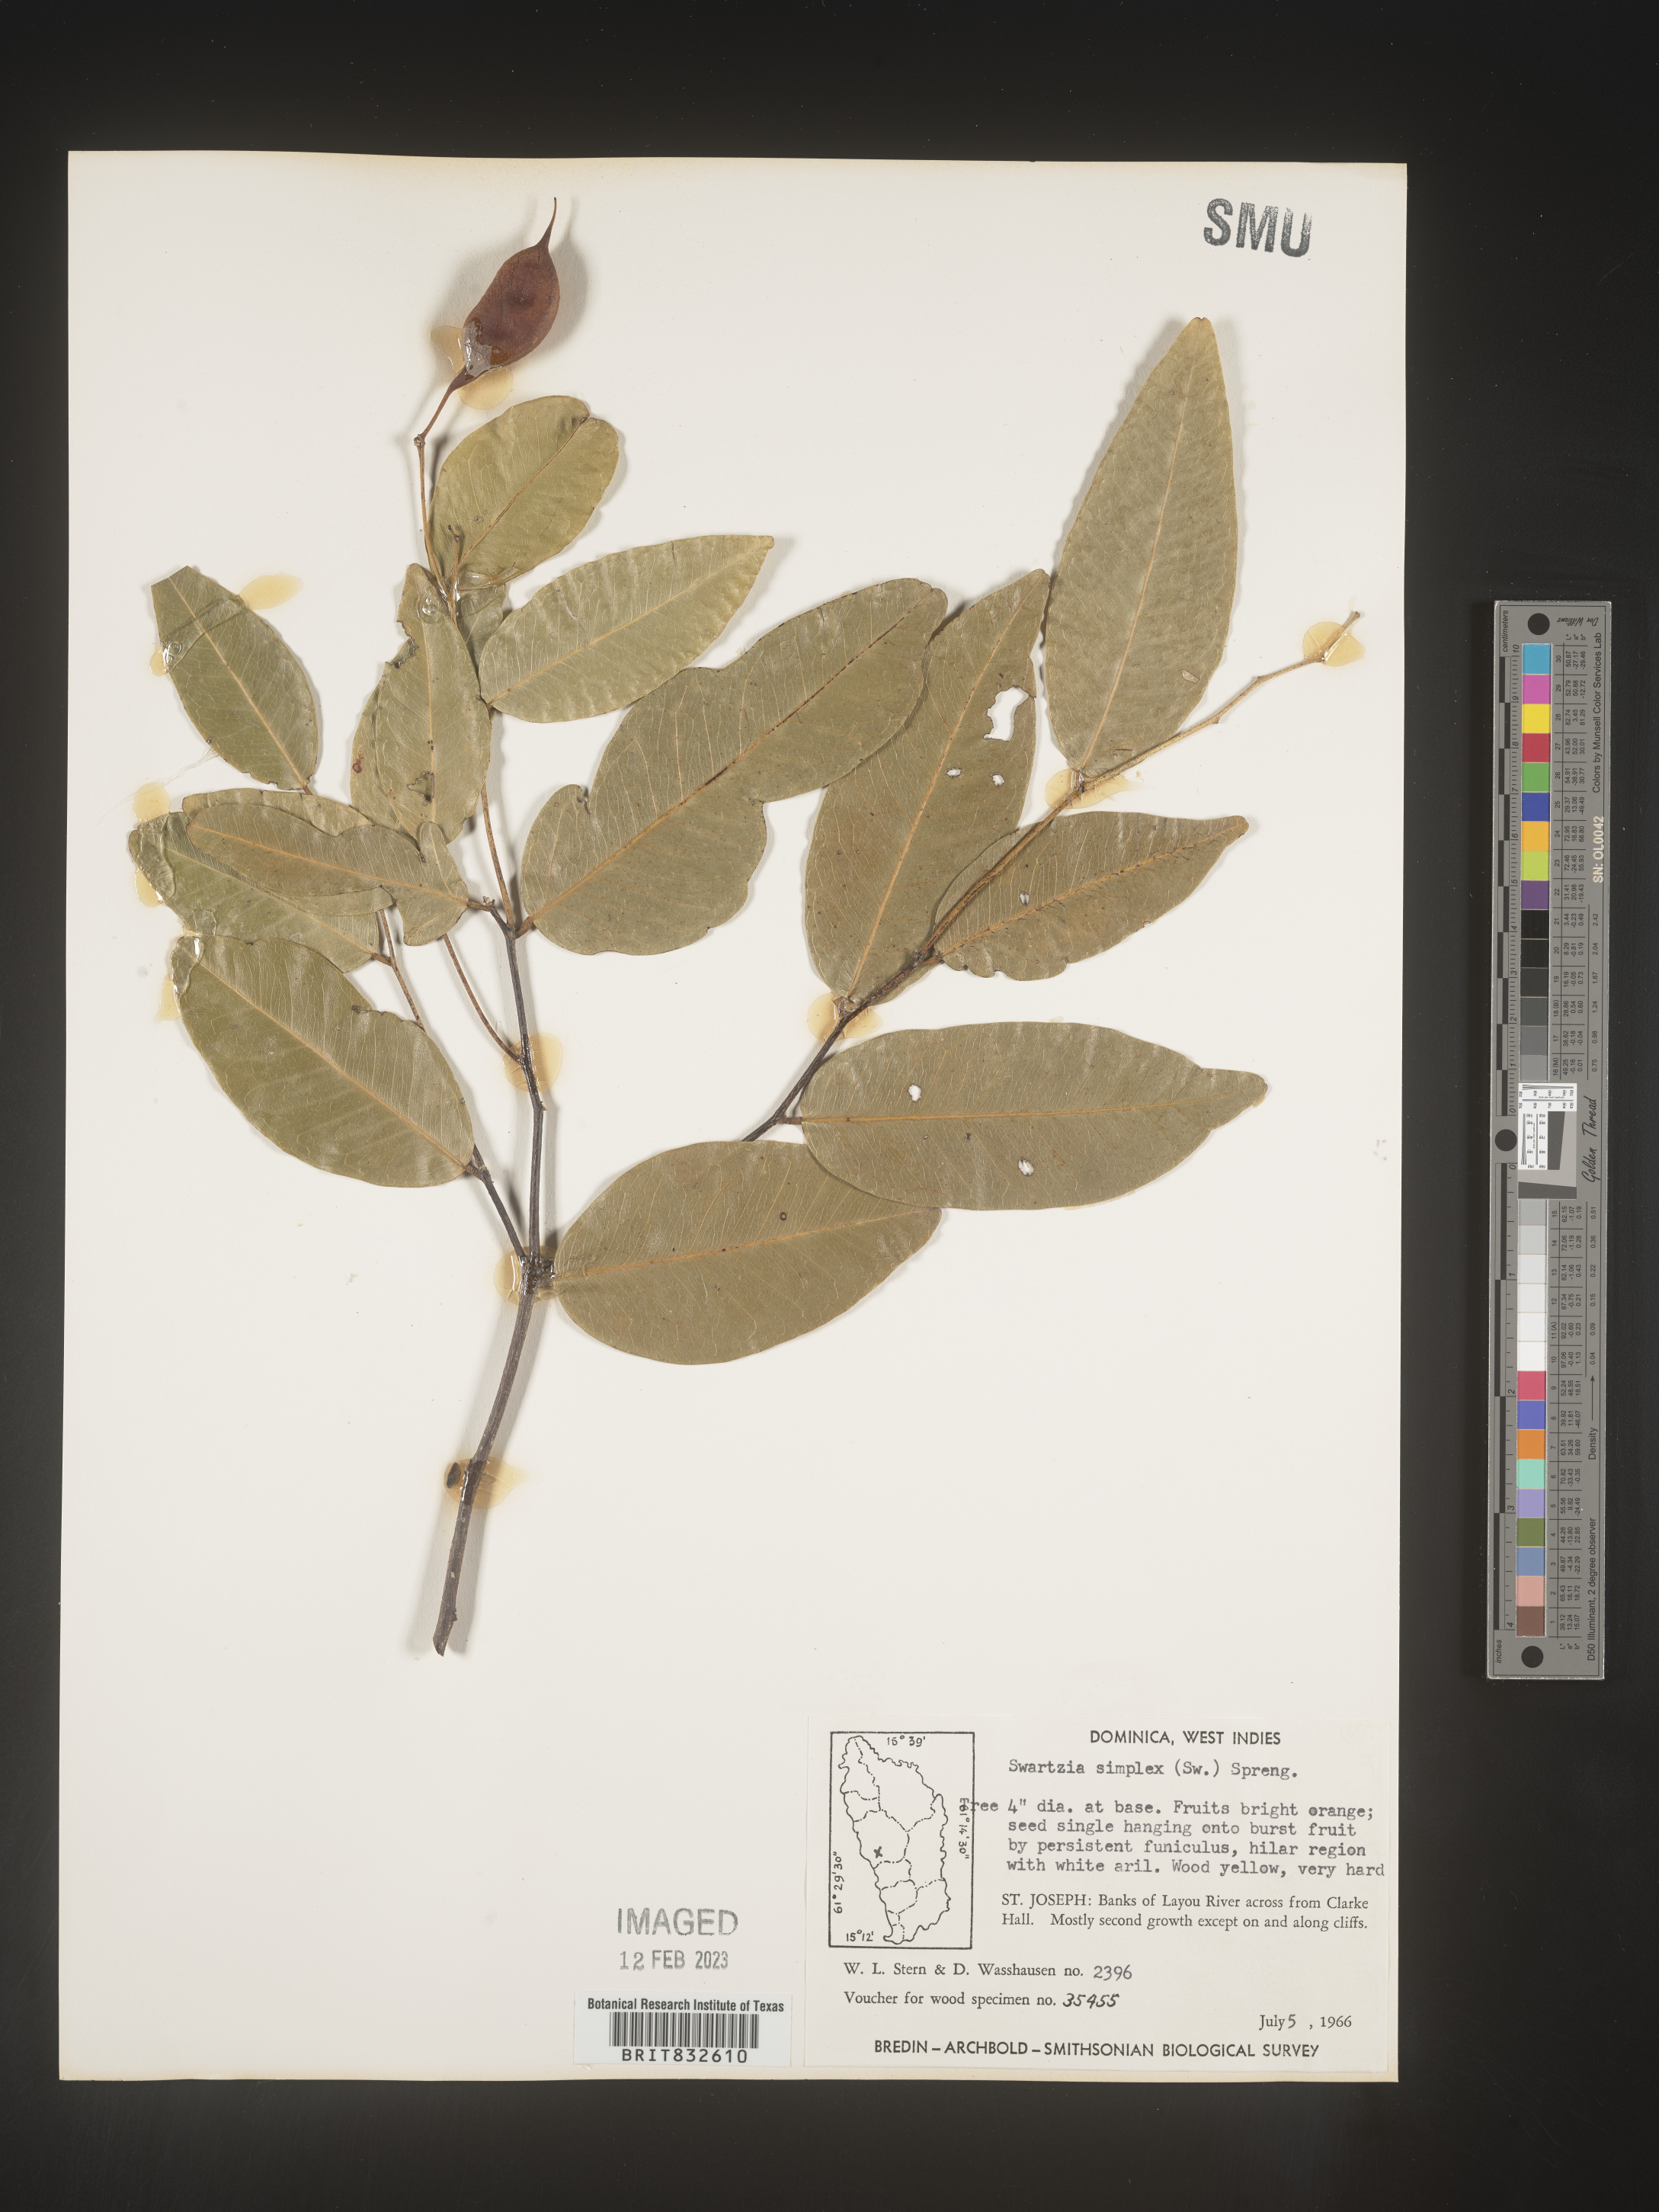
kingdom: Plantae
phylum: Tracheophyta
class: Magnoliopsida
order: Fabales
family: Fabaceae
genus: Swartzia
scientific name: Swartzia
